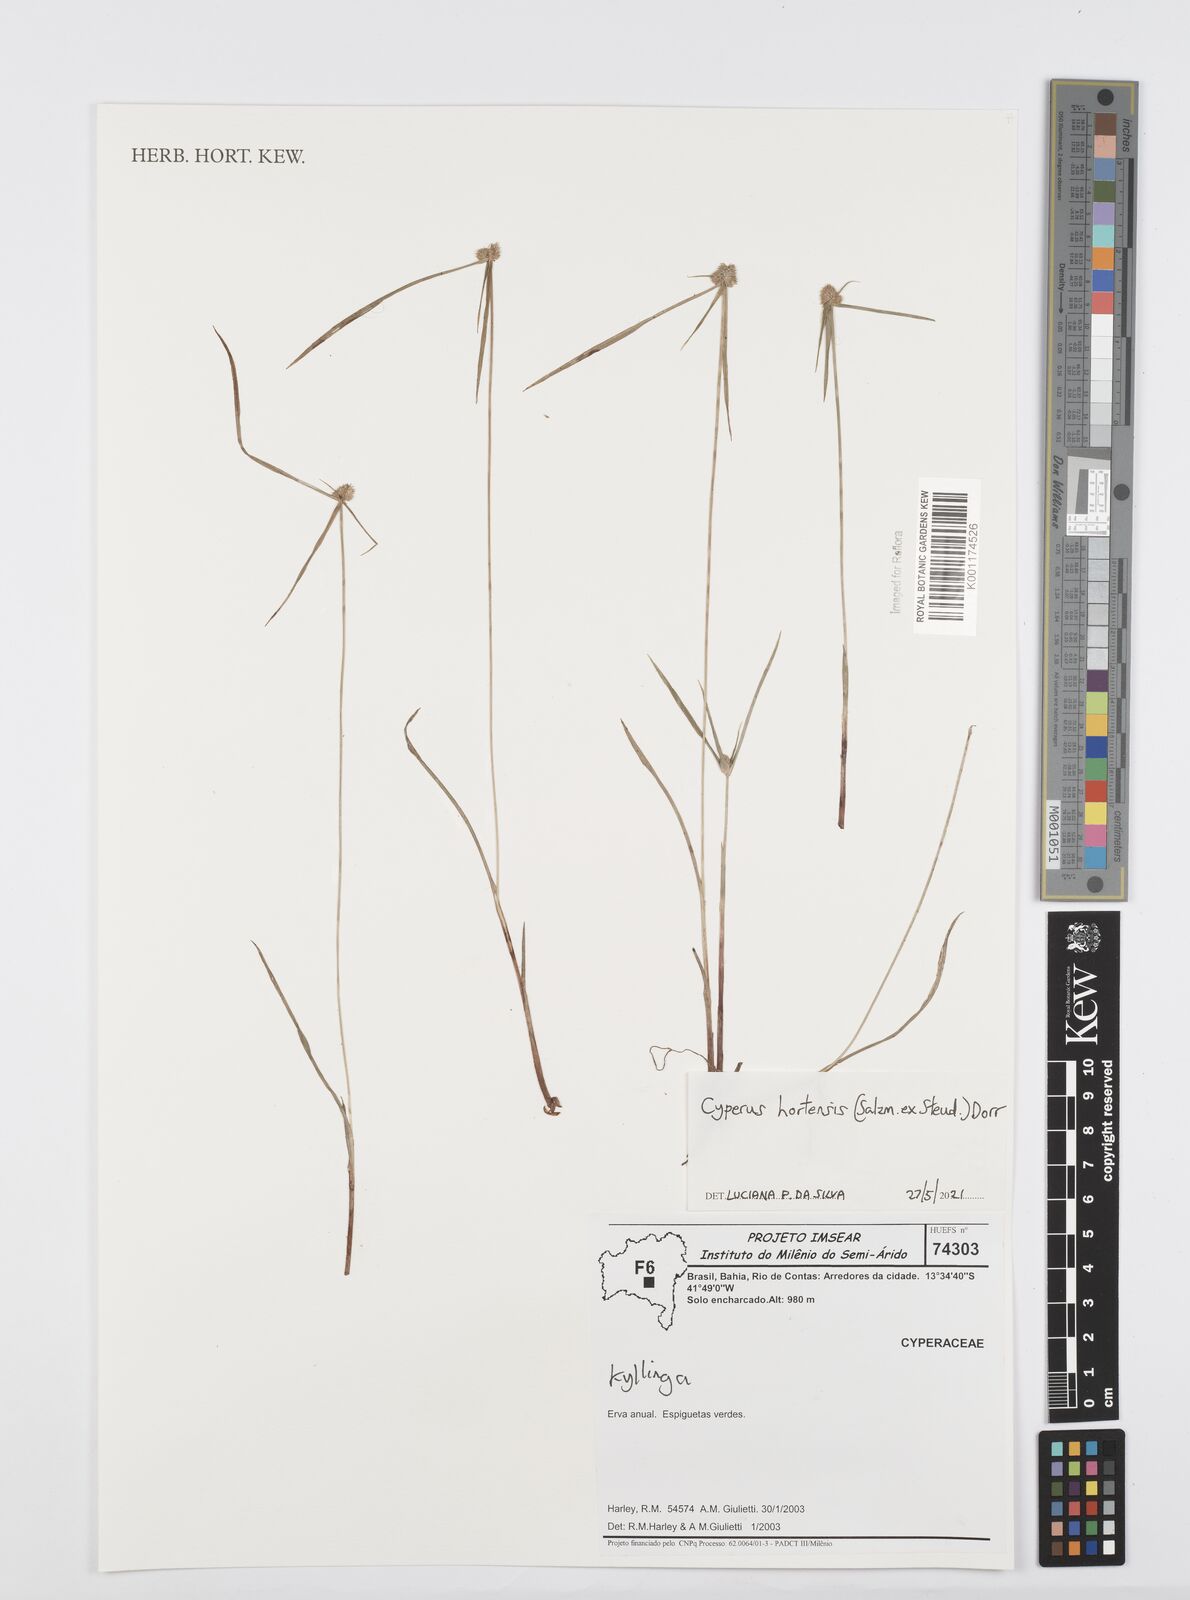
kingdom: Plantae
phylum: Tracheophyta
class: Liliopsida
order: Poales
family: Cyperaceae
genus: Cyperus
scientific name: Cyperus
